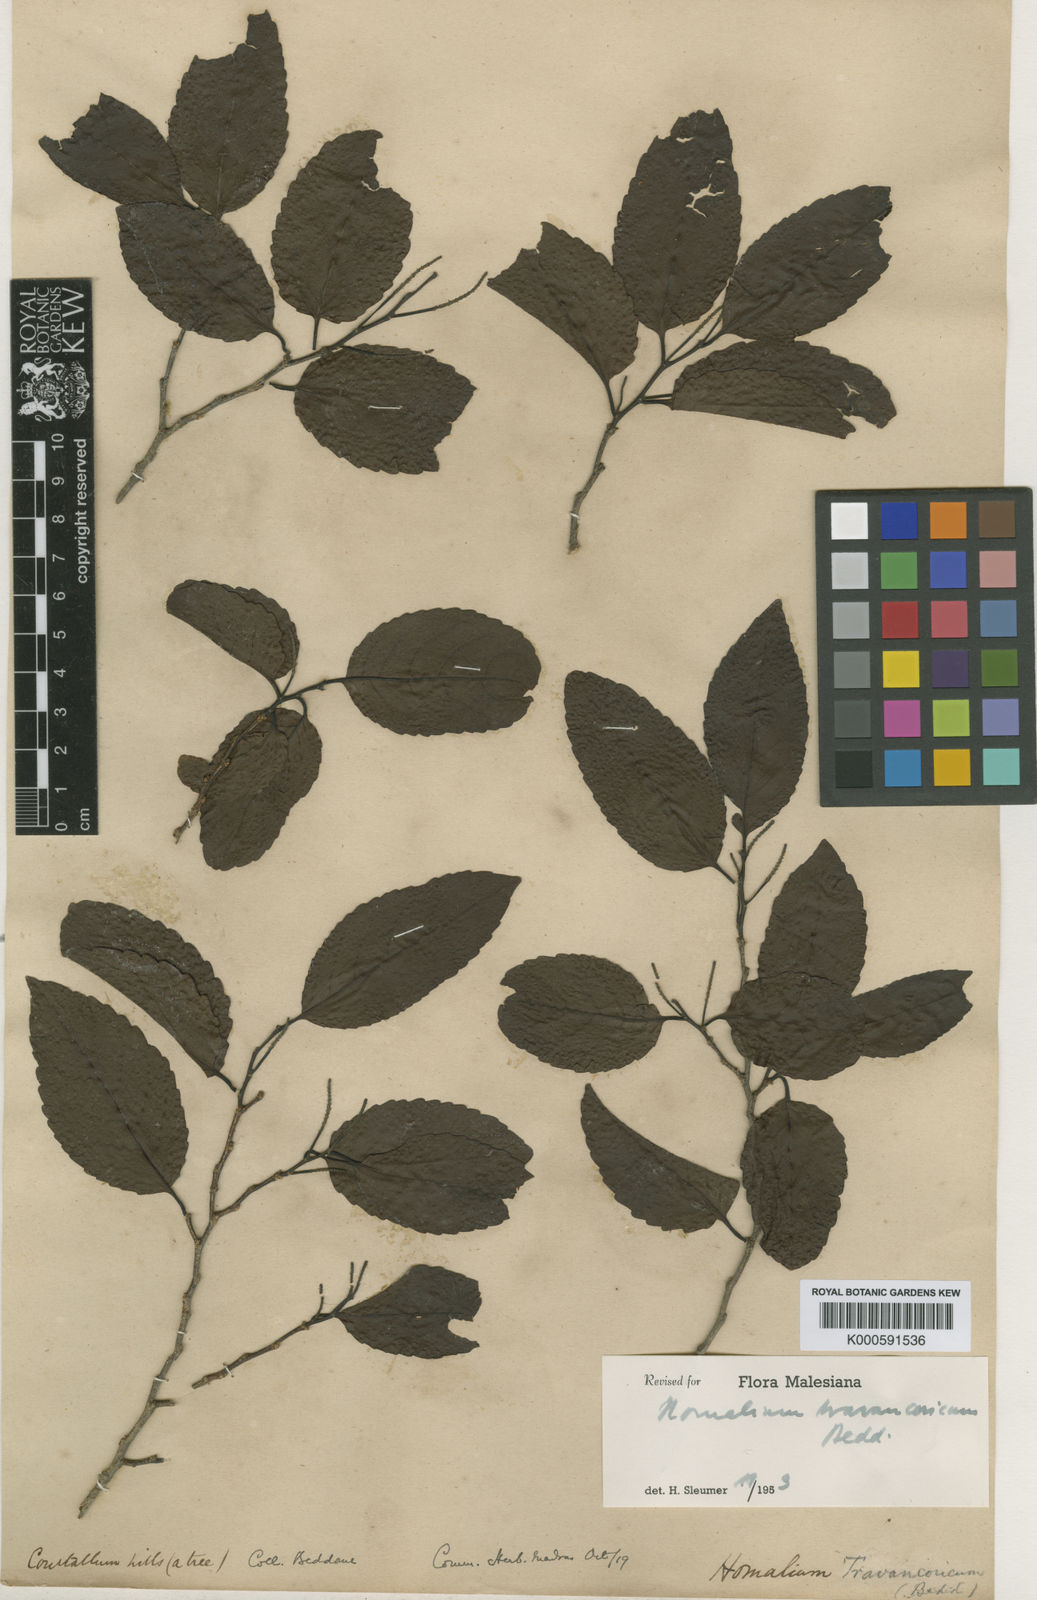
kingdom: Plantae
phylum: Tracheophyta
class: Magnoliopsida
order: Malpighiales
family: Salicaceae
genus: Homalium
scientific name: Homalium travancoricum
